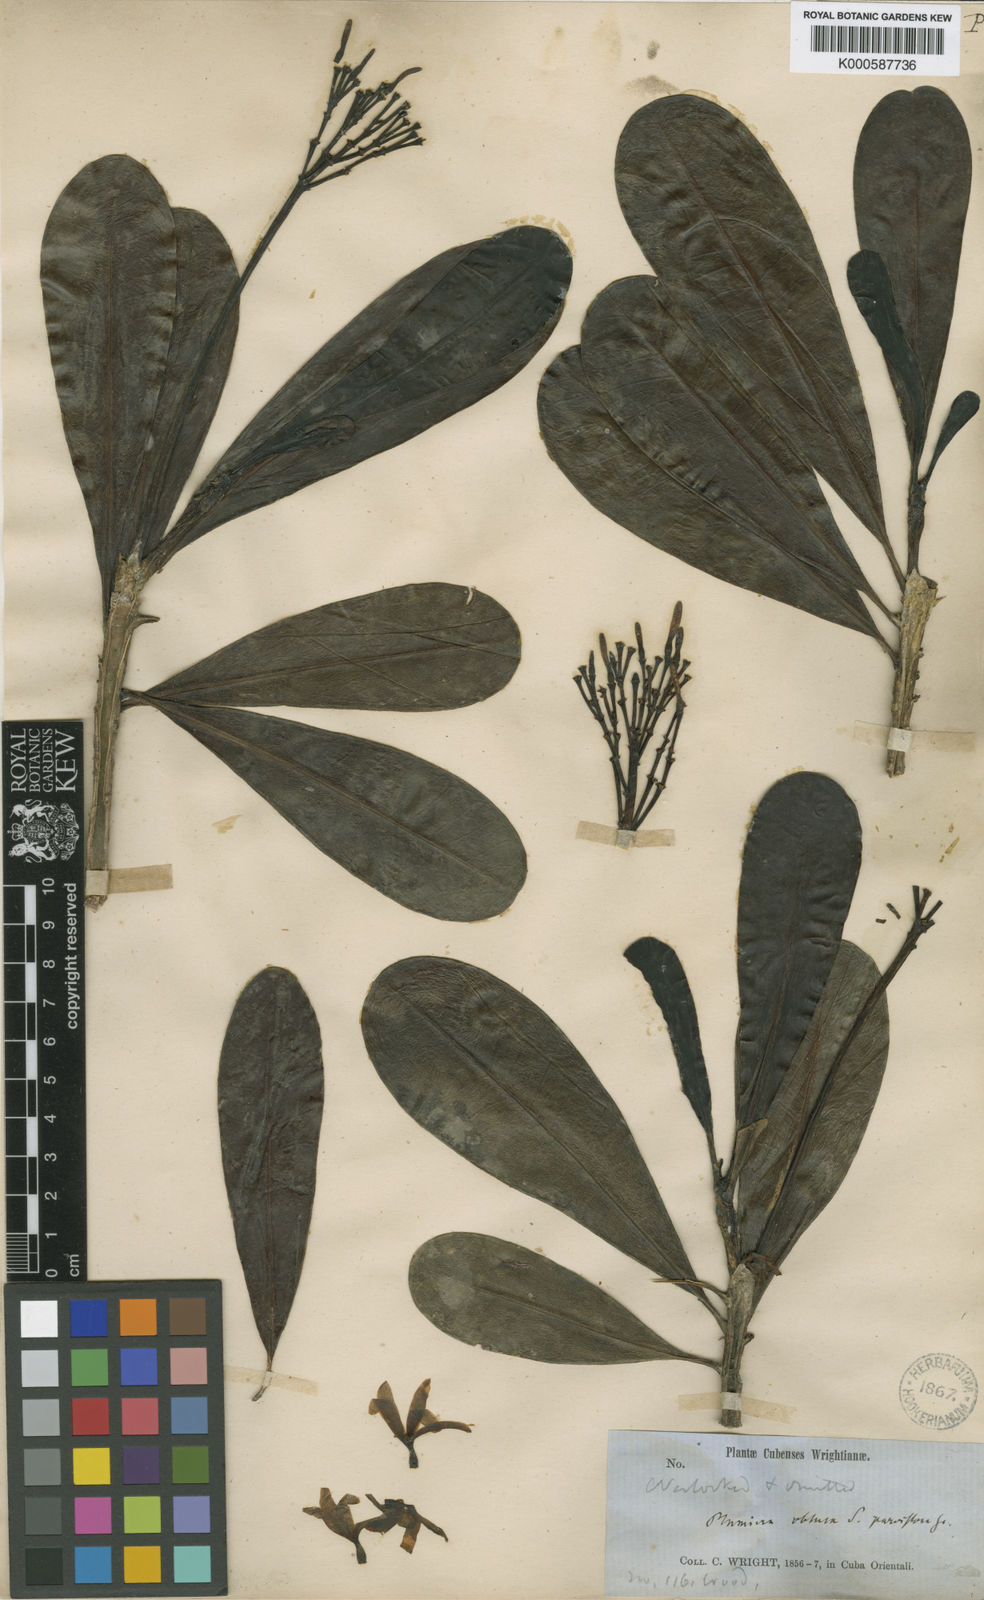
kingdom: Plantae
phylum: Tracheophyta
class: Magnoliopsida
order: Gentianales
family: Apocynaceae
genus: Plumeria
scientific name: Plumeria obtusa
